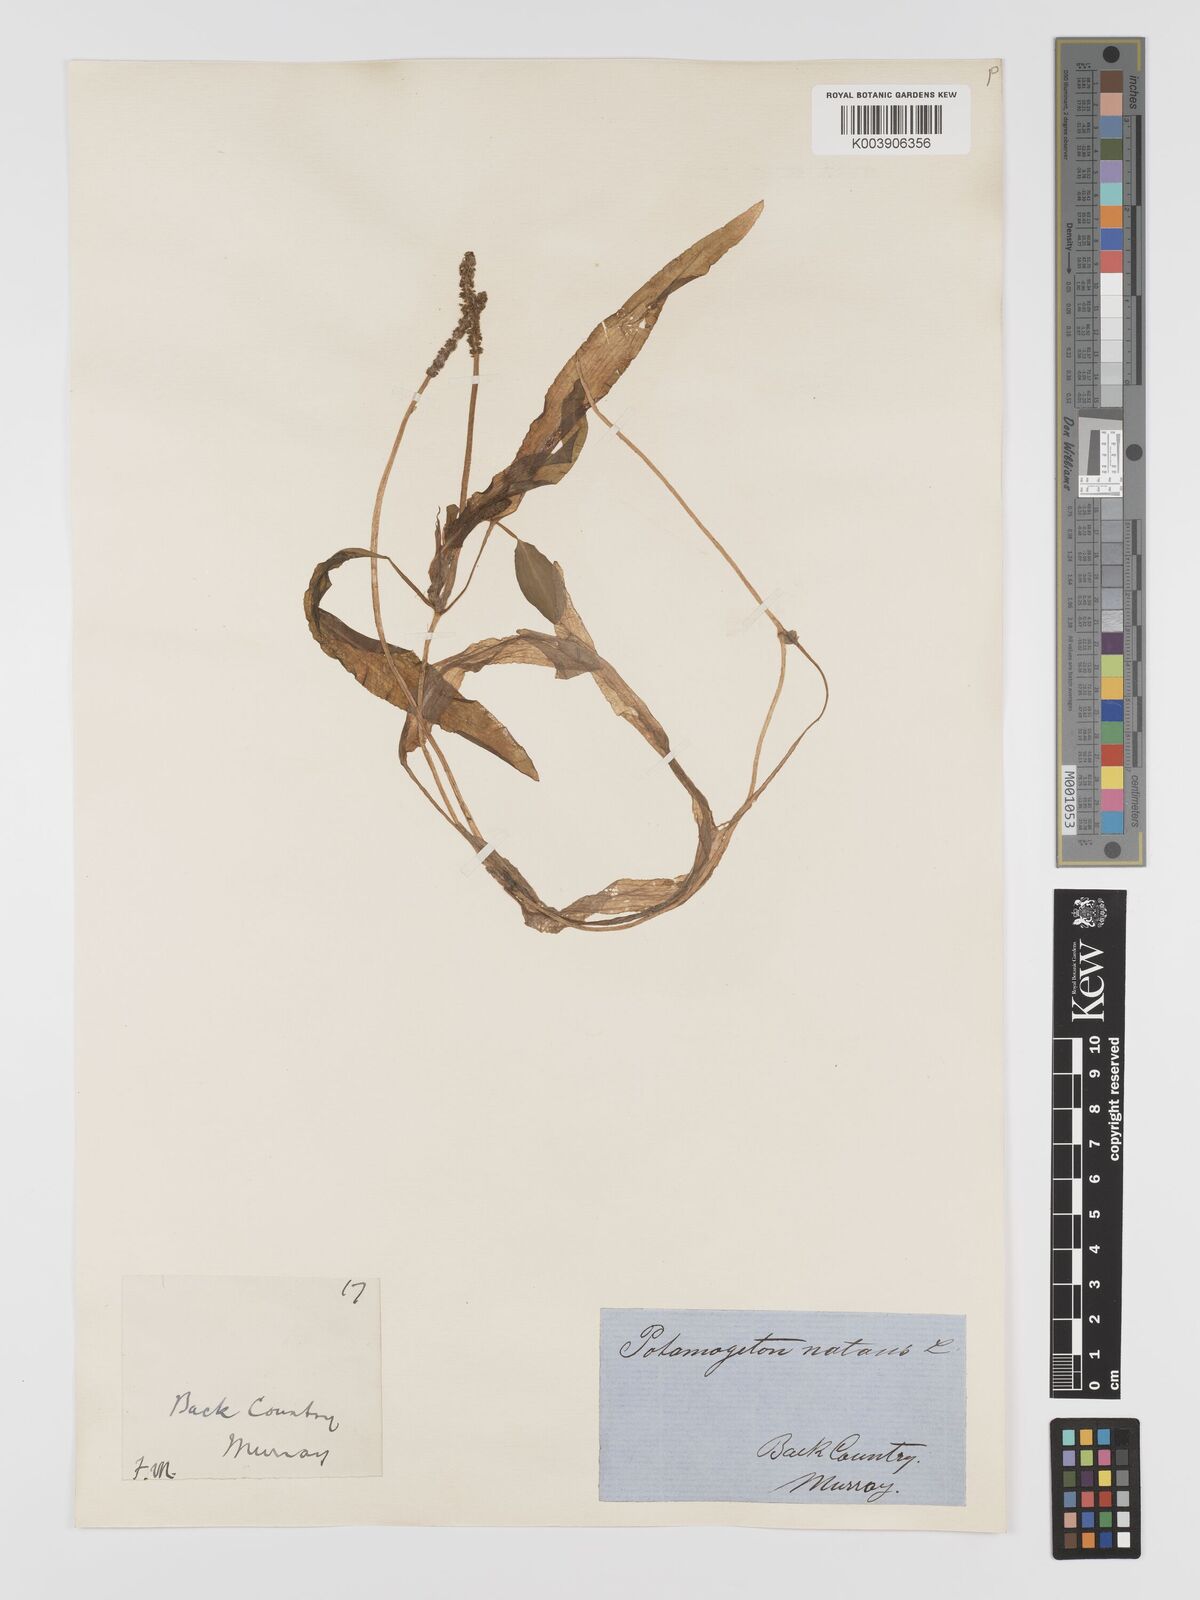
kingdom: Plantae
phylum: Tracheophyta
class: Liliopsida
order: Alismatales
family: Potamogetonaceae
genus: Potamogeton
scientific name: Potamogeton natans
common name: Broad-leaved pondweed
